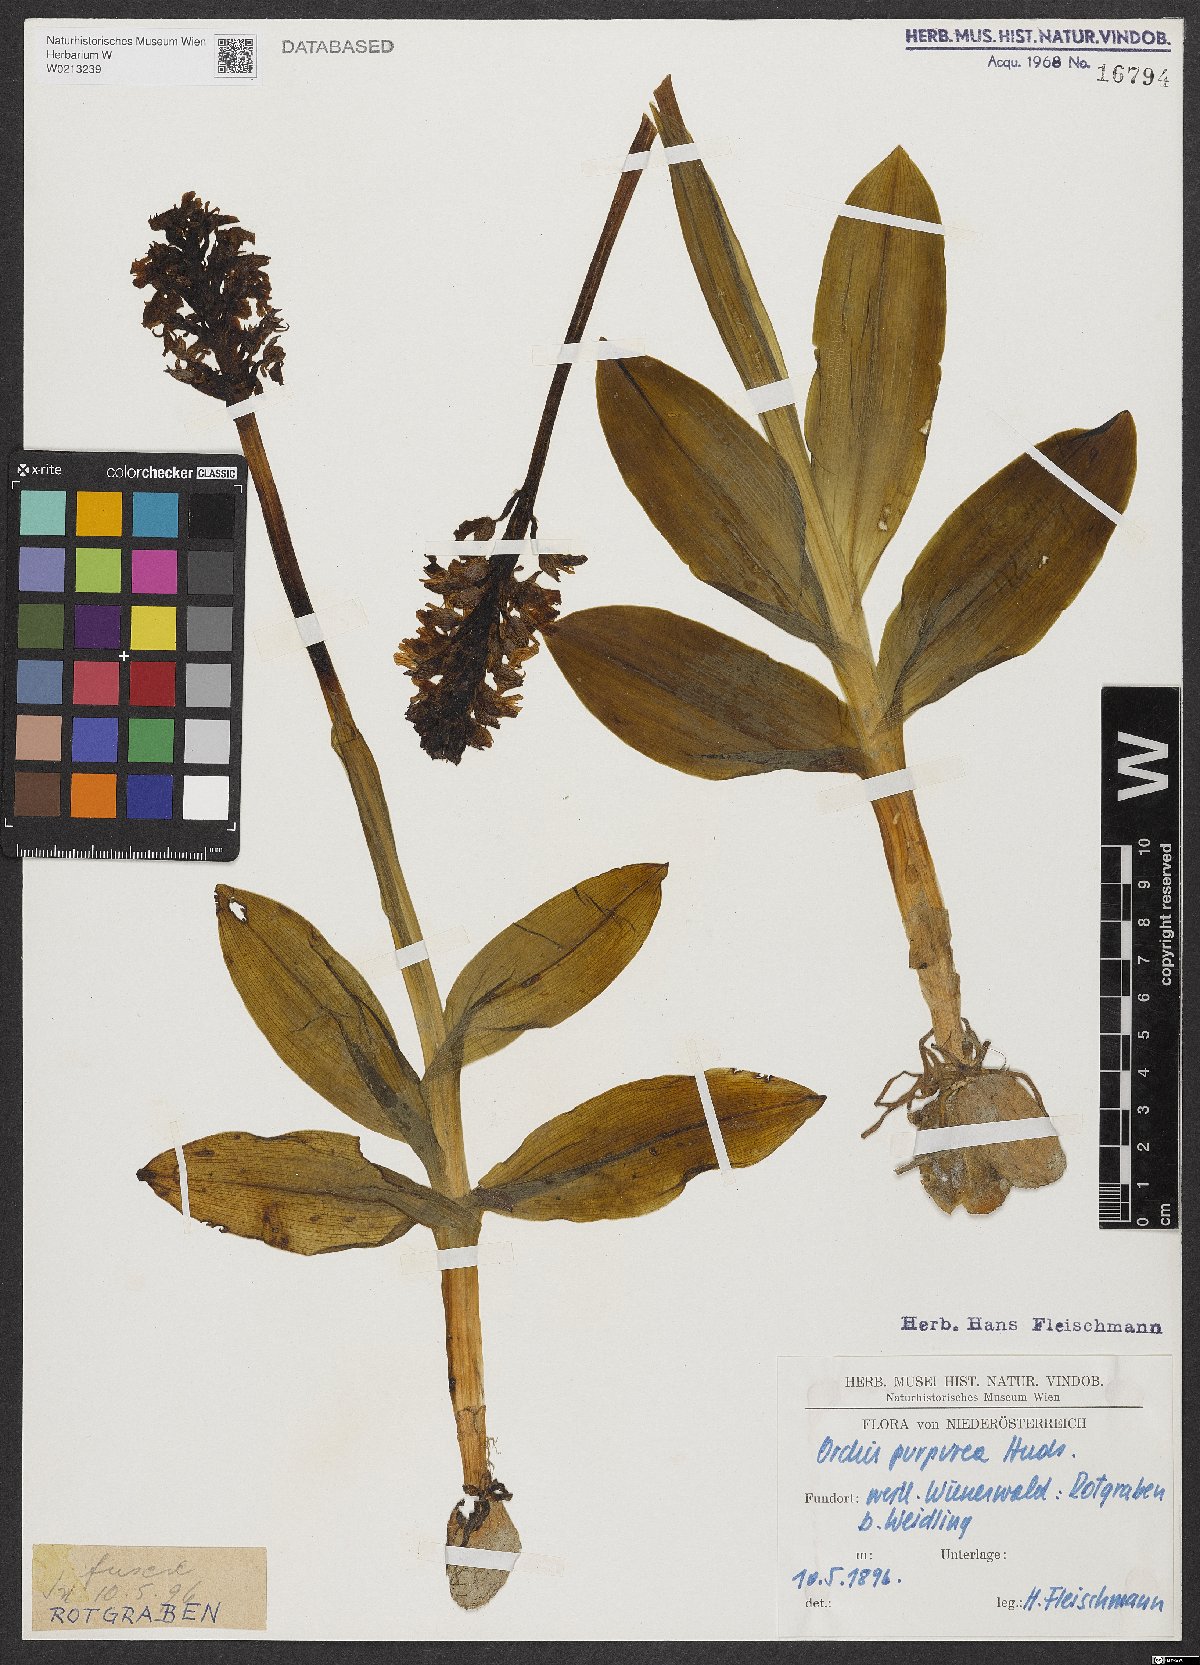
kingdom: Plantae
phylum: Tracheophyta
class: Liliopsida
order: Asparagales
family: Orchidaceae
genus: Orchis
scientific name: Orchis purpurea
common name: Lady orchid
